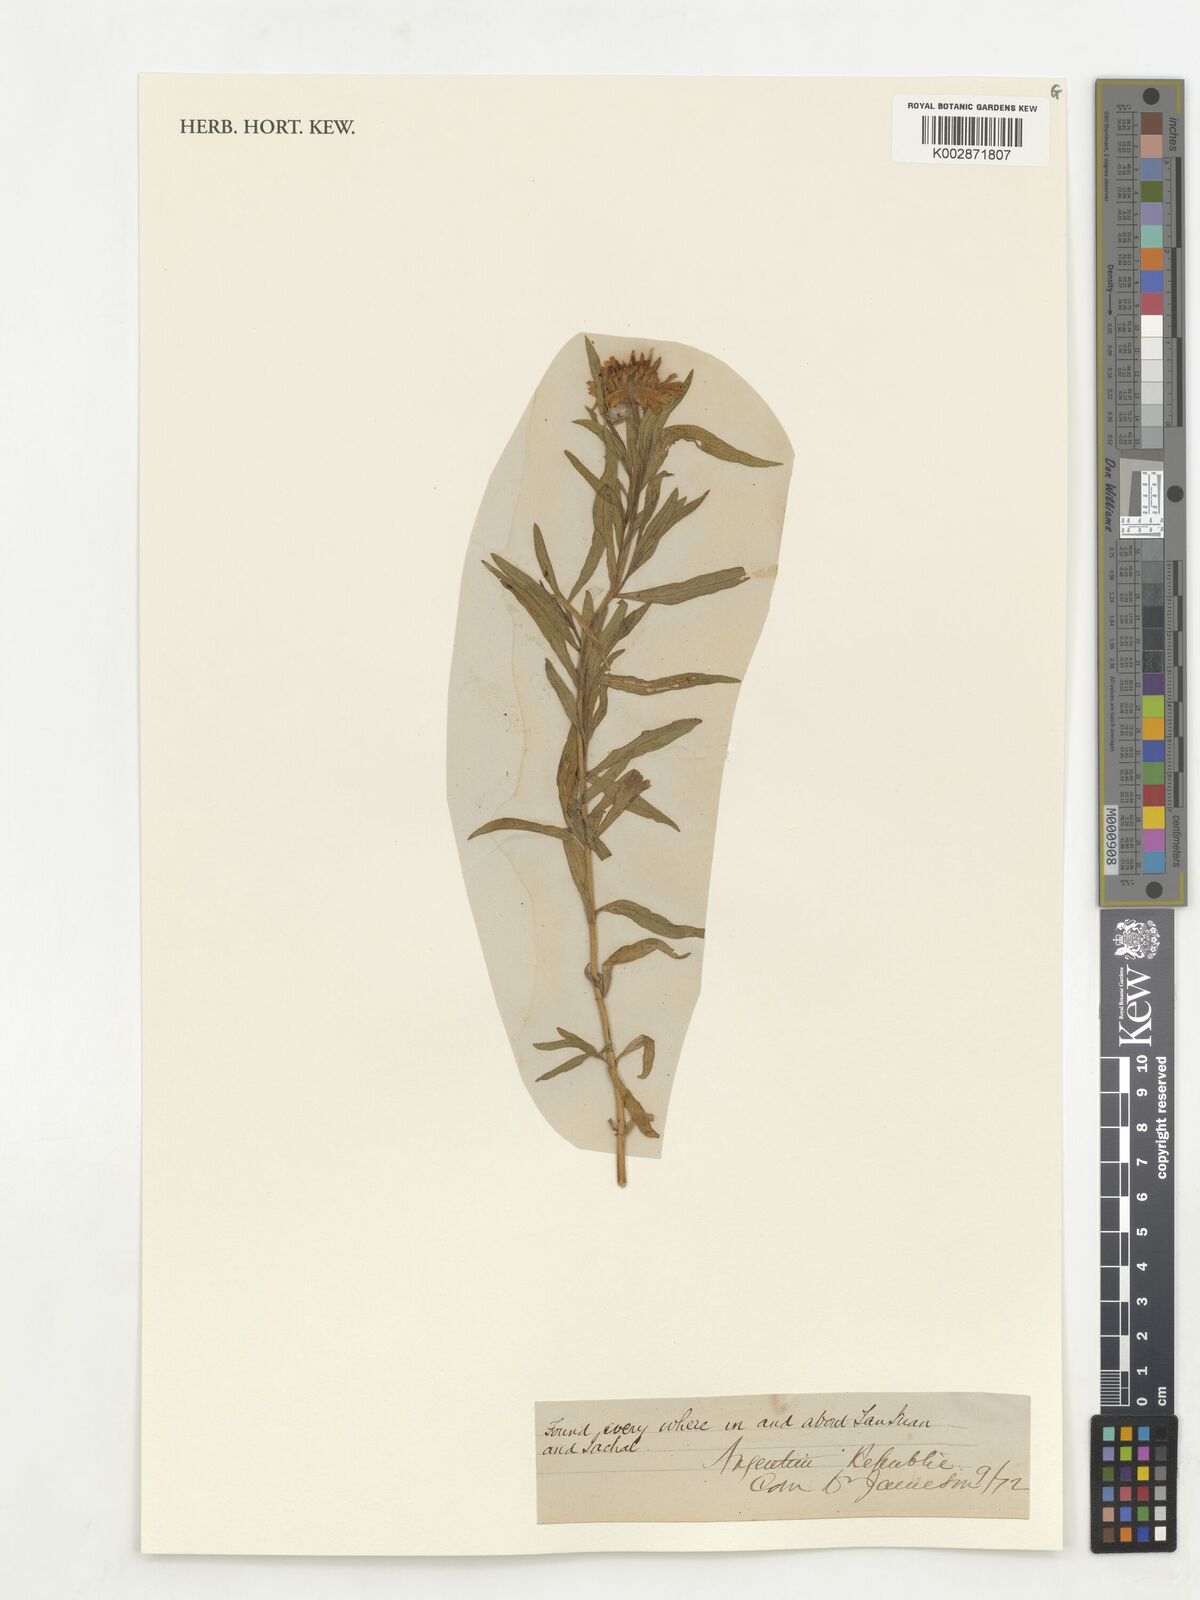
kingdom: Plantae
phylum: Tracheophyta
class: Magnoliopsida
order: Asterales
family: Asteraceae
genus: Pascalia
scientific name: Pascalia glauca
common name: Beach creeping oxeye
